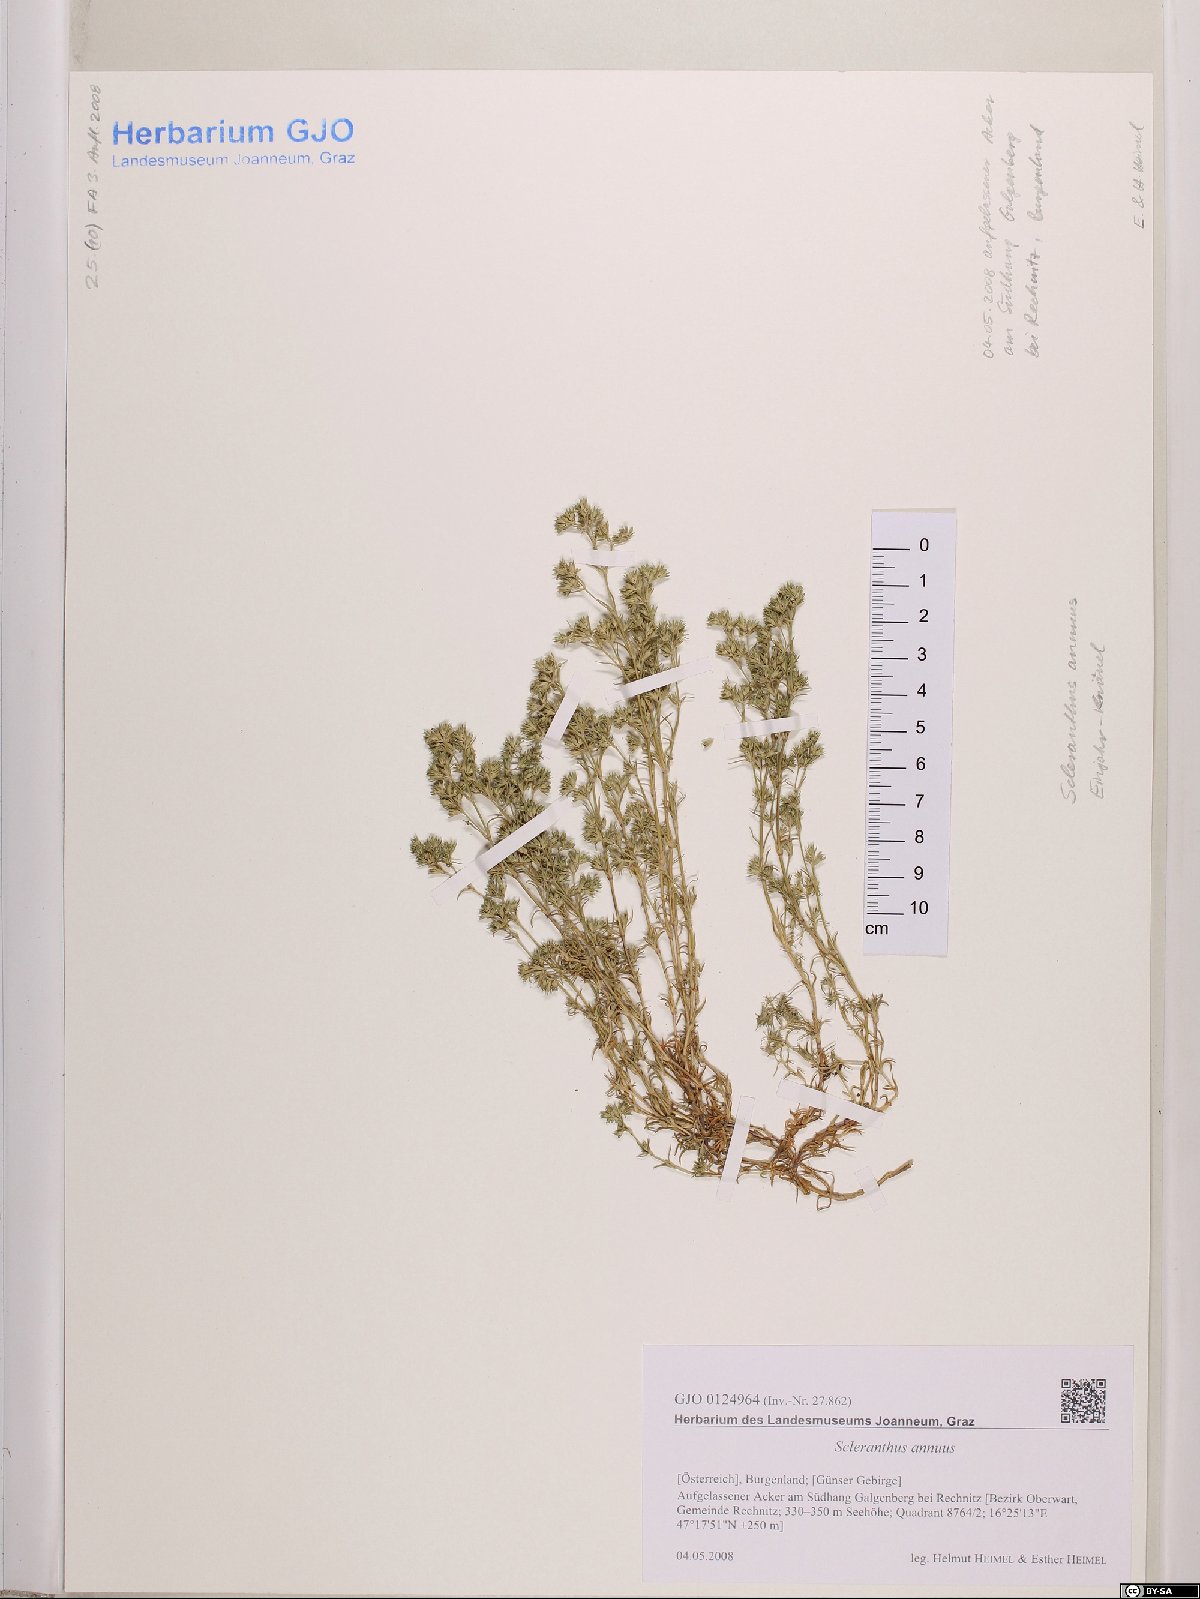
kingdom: Plantae
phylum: Tracheophyta
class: Magnoliopsida
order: Caryophyllales
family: Caryophyllaceae
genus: Scleranthus
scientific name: Scleranthus annuus
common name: Annual knawel
